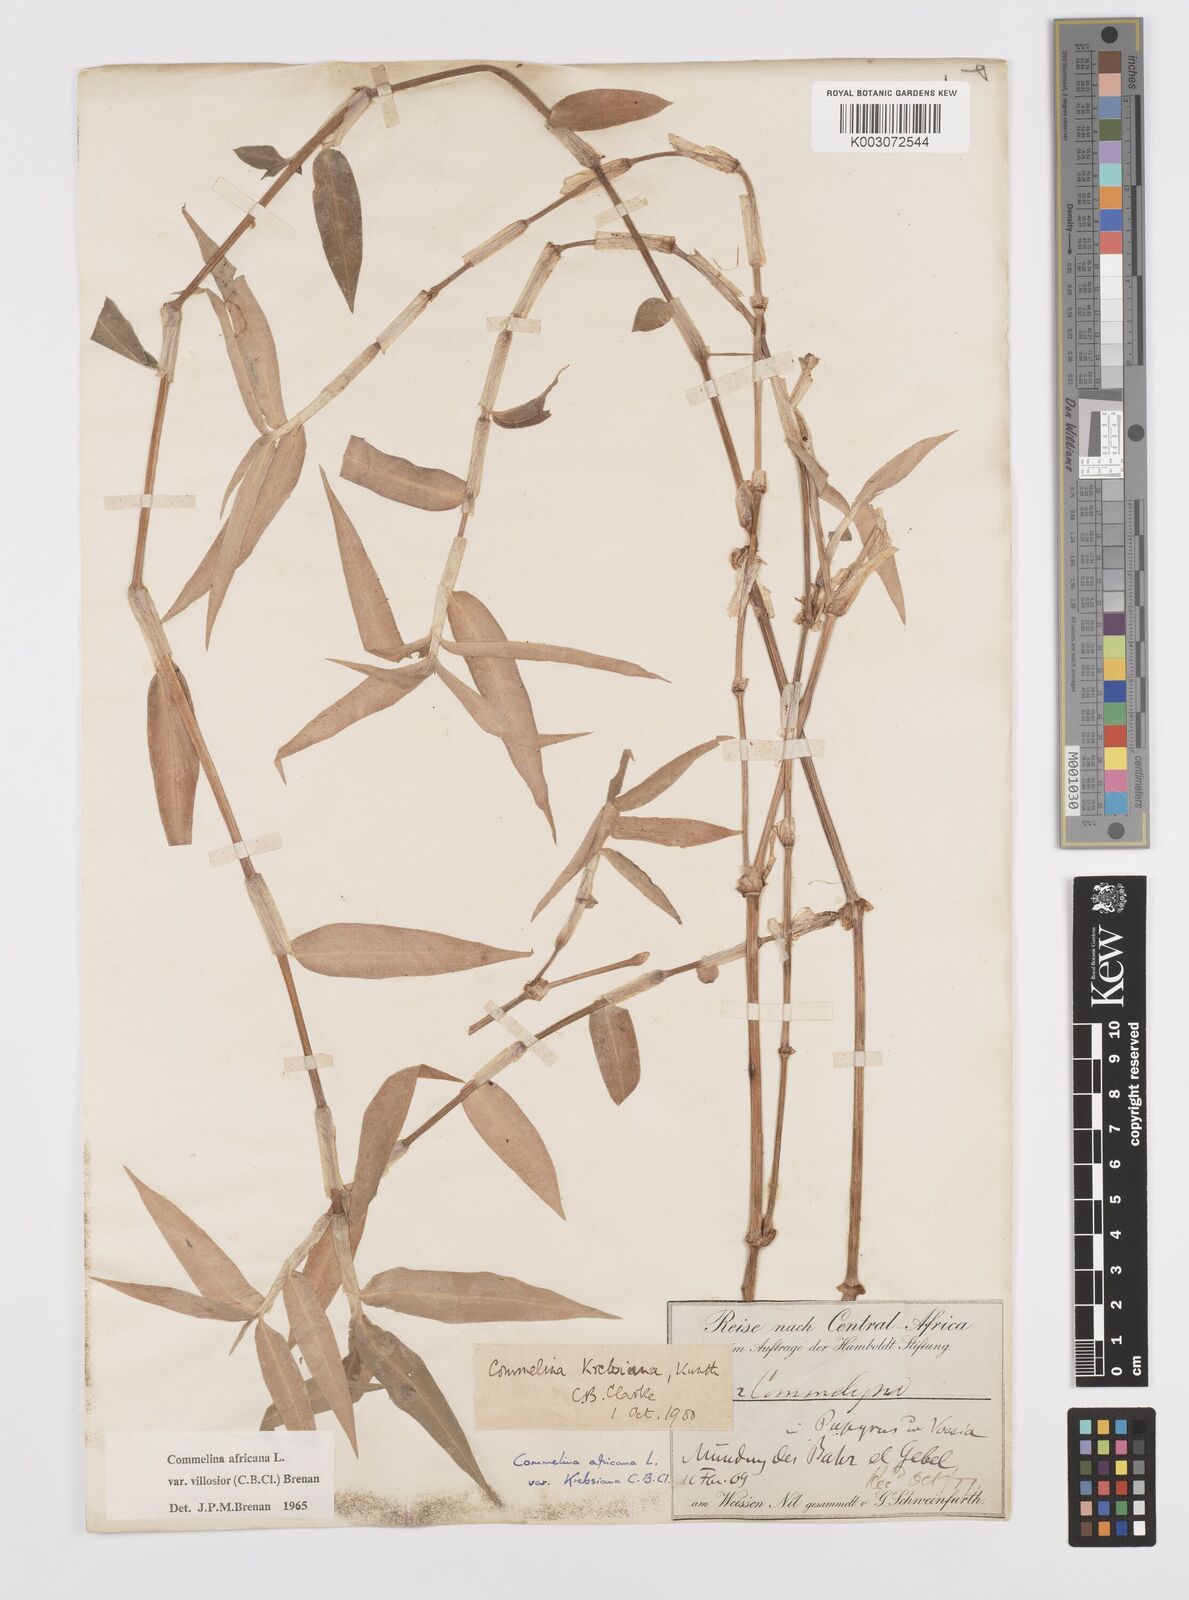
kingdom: Plantae
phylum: Tracheophyta
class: Liliopsida
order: Commelinales
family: Commelinaceae
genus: Commelina
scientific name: Commelina africana
